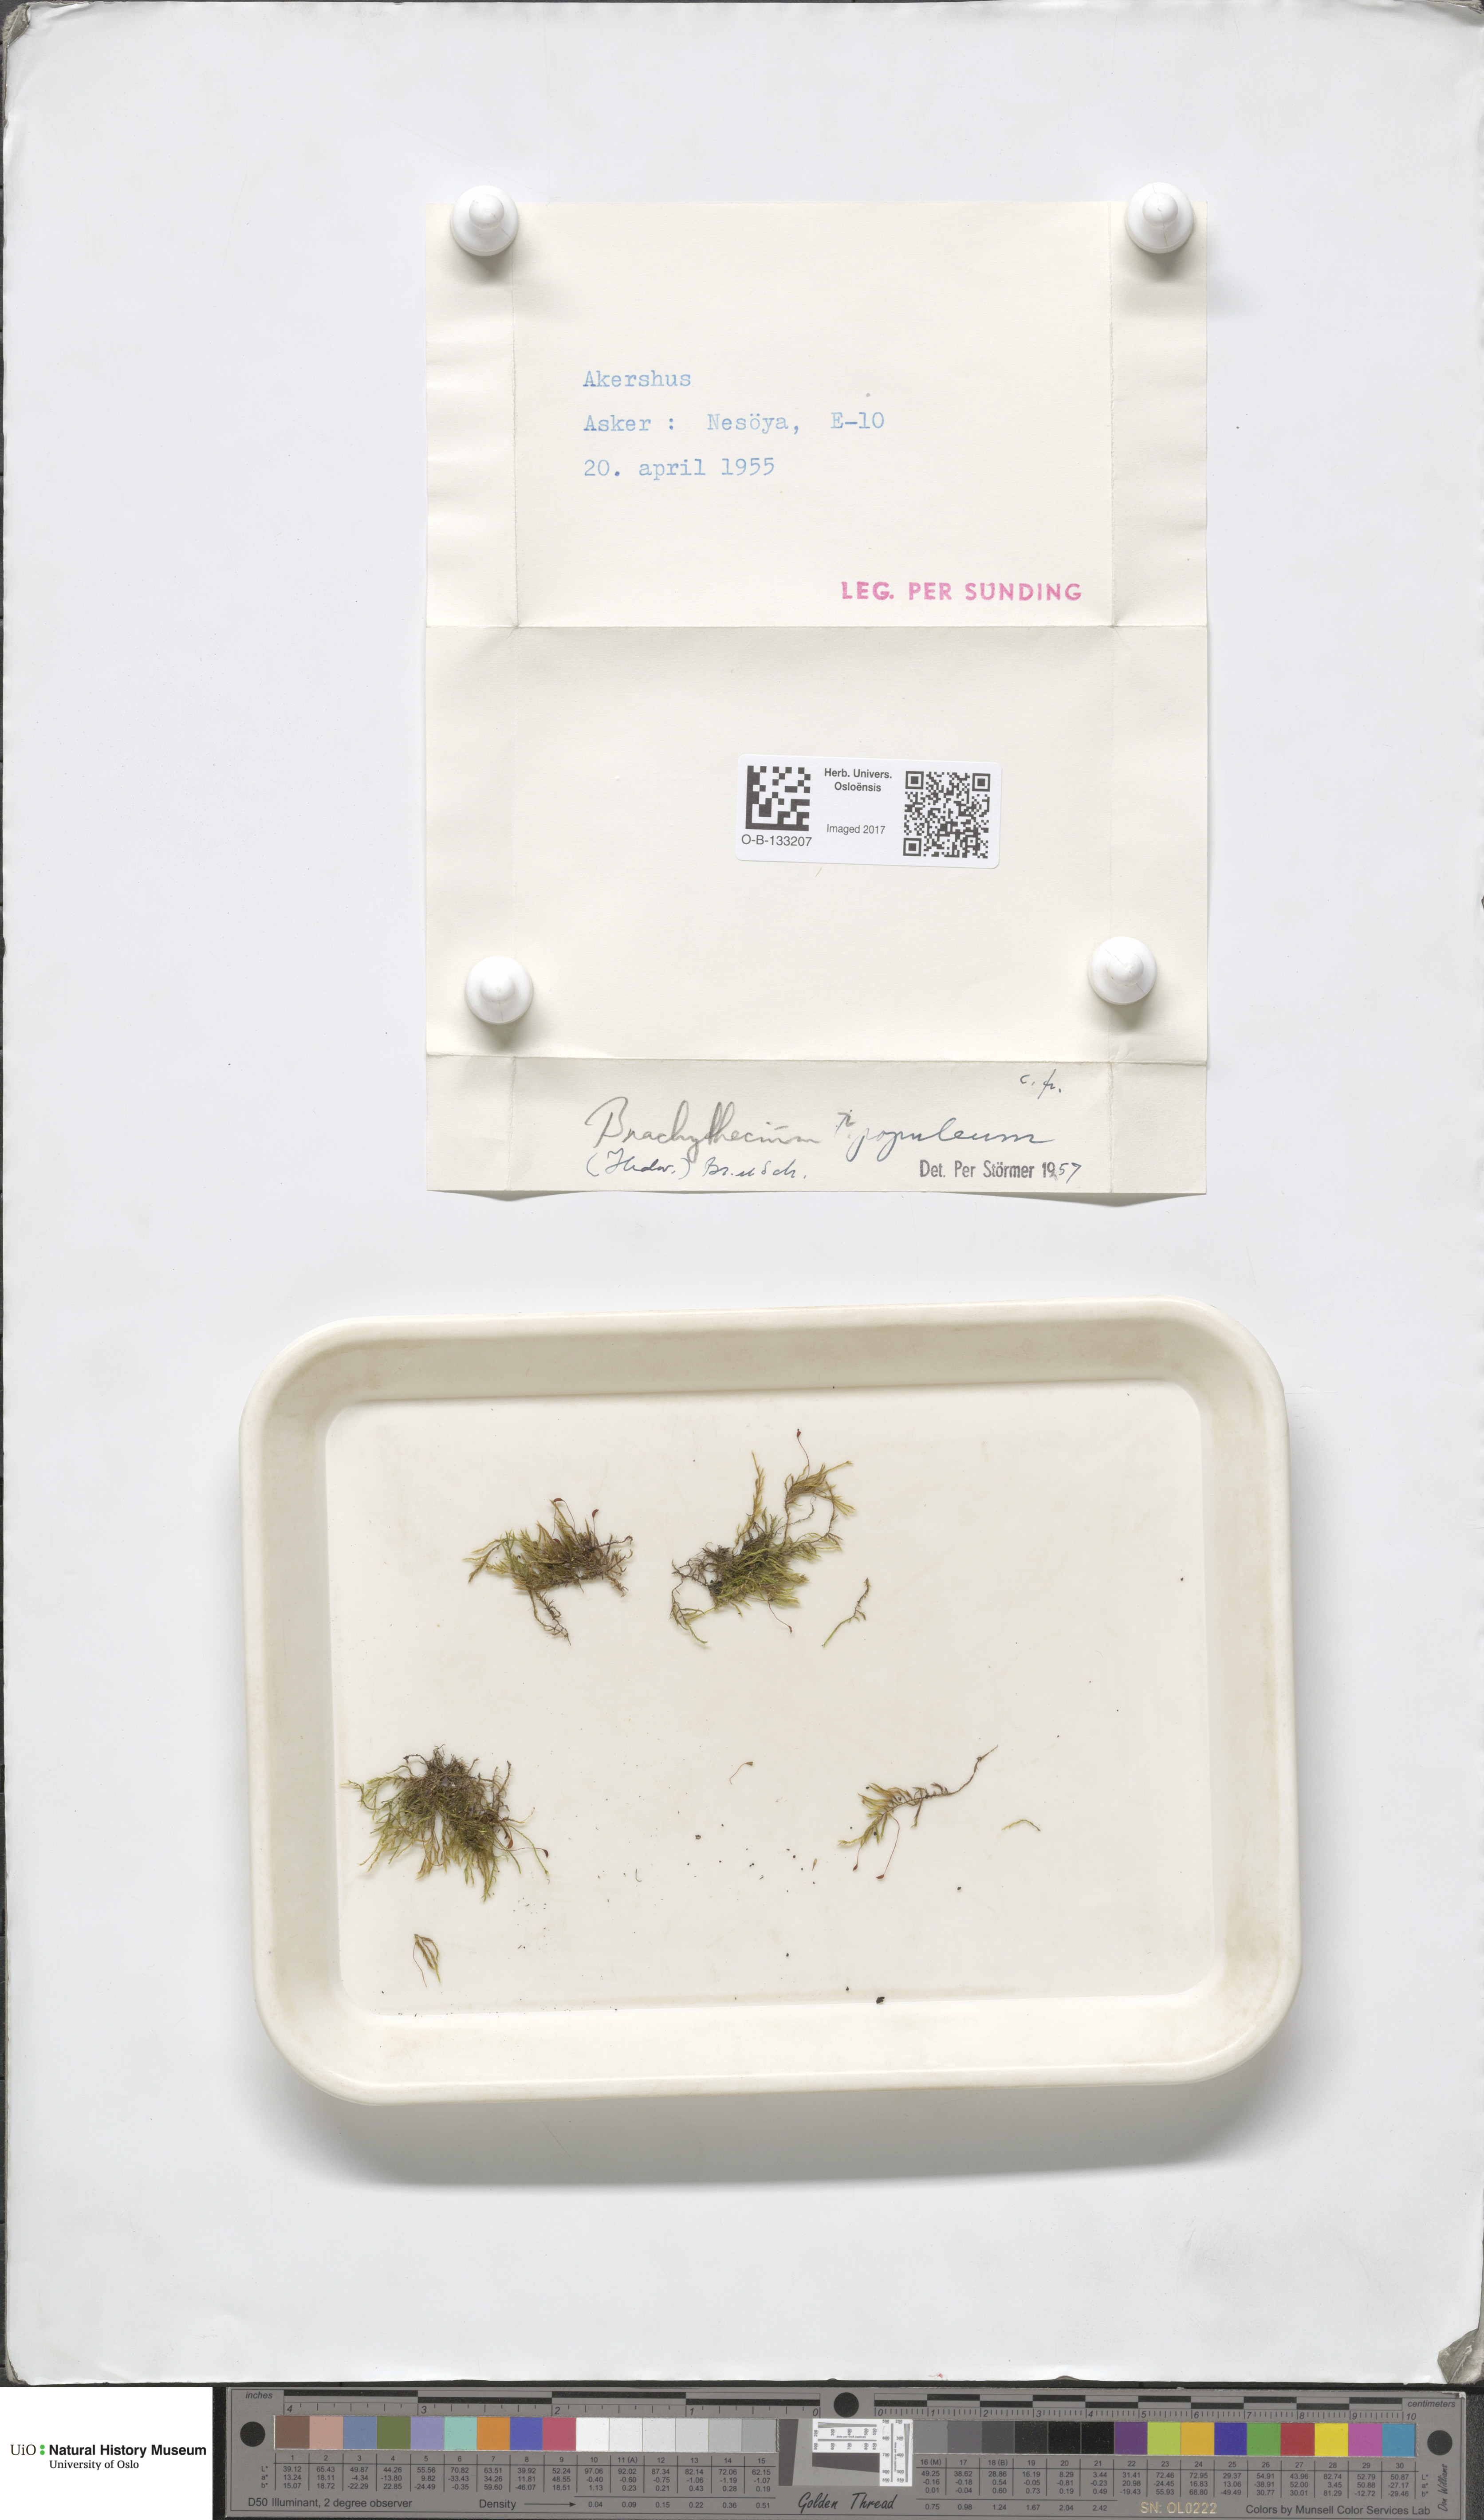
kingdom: Plantae
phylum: Bryophyta
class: Bryopsida
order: Hypnales
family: Brachytheciaceae
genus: Sciuro-hypnum
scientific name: Sciuro-hypnum plumosum
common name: Rusty feather-moss
